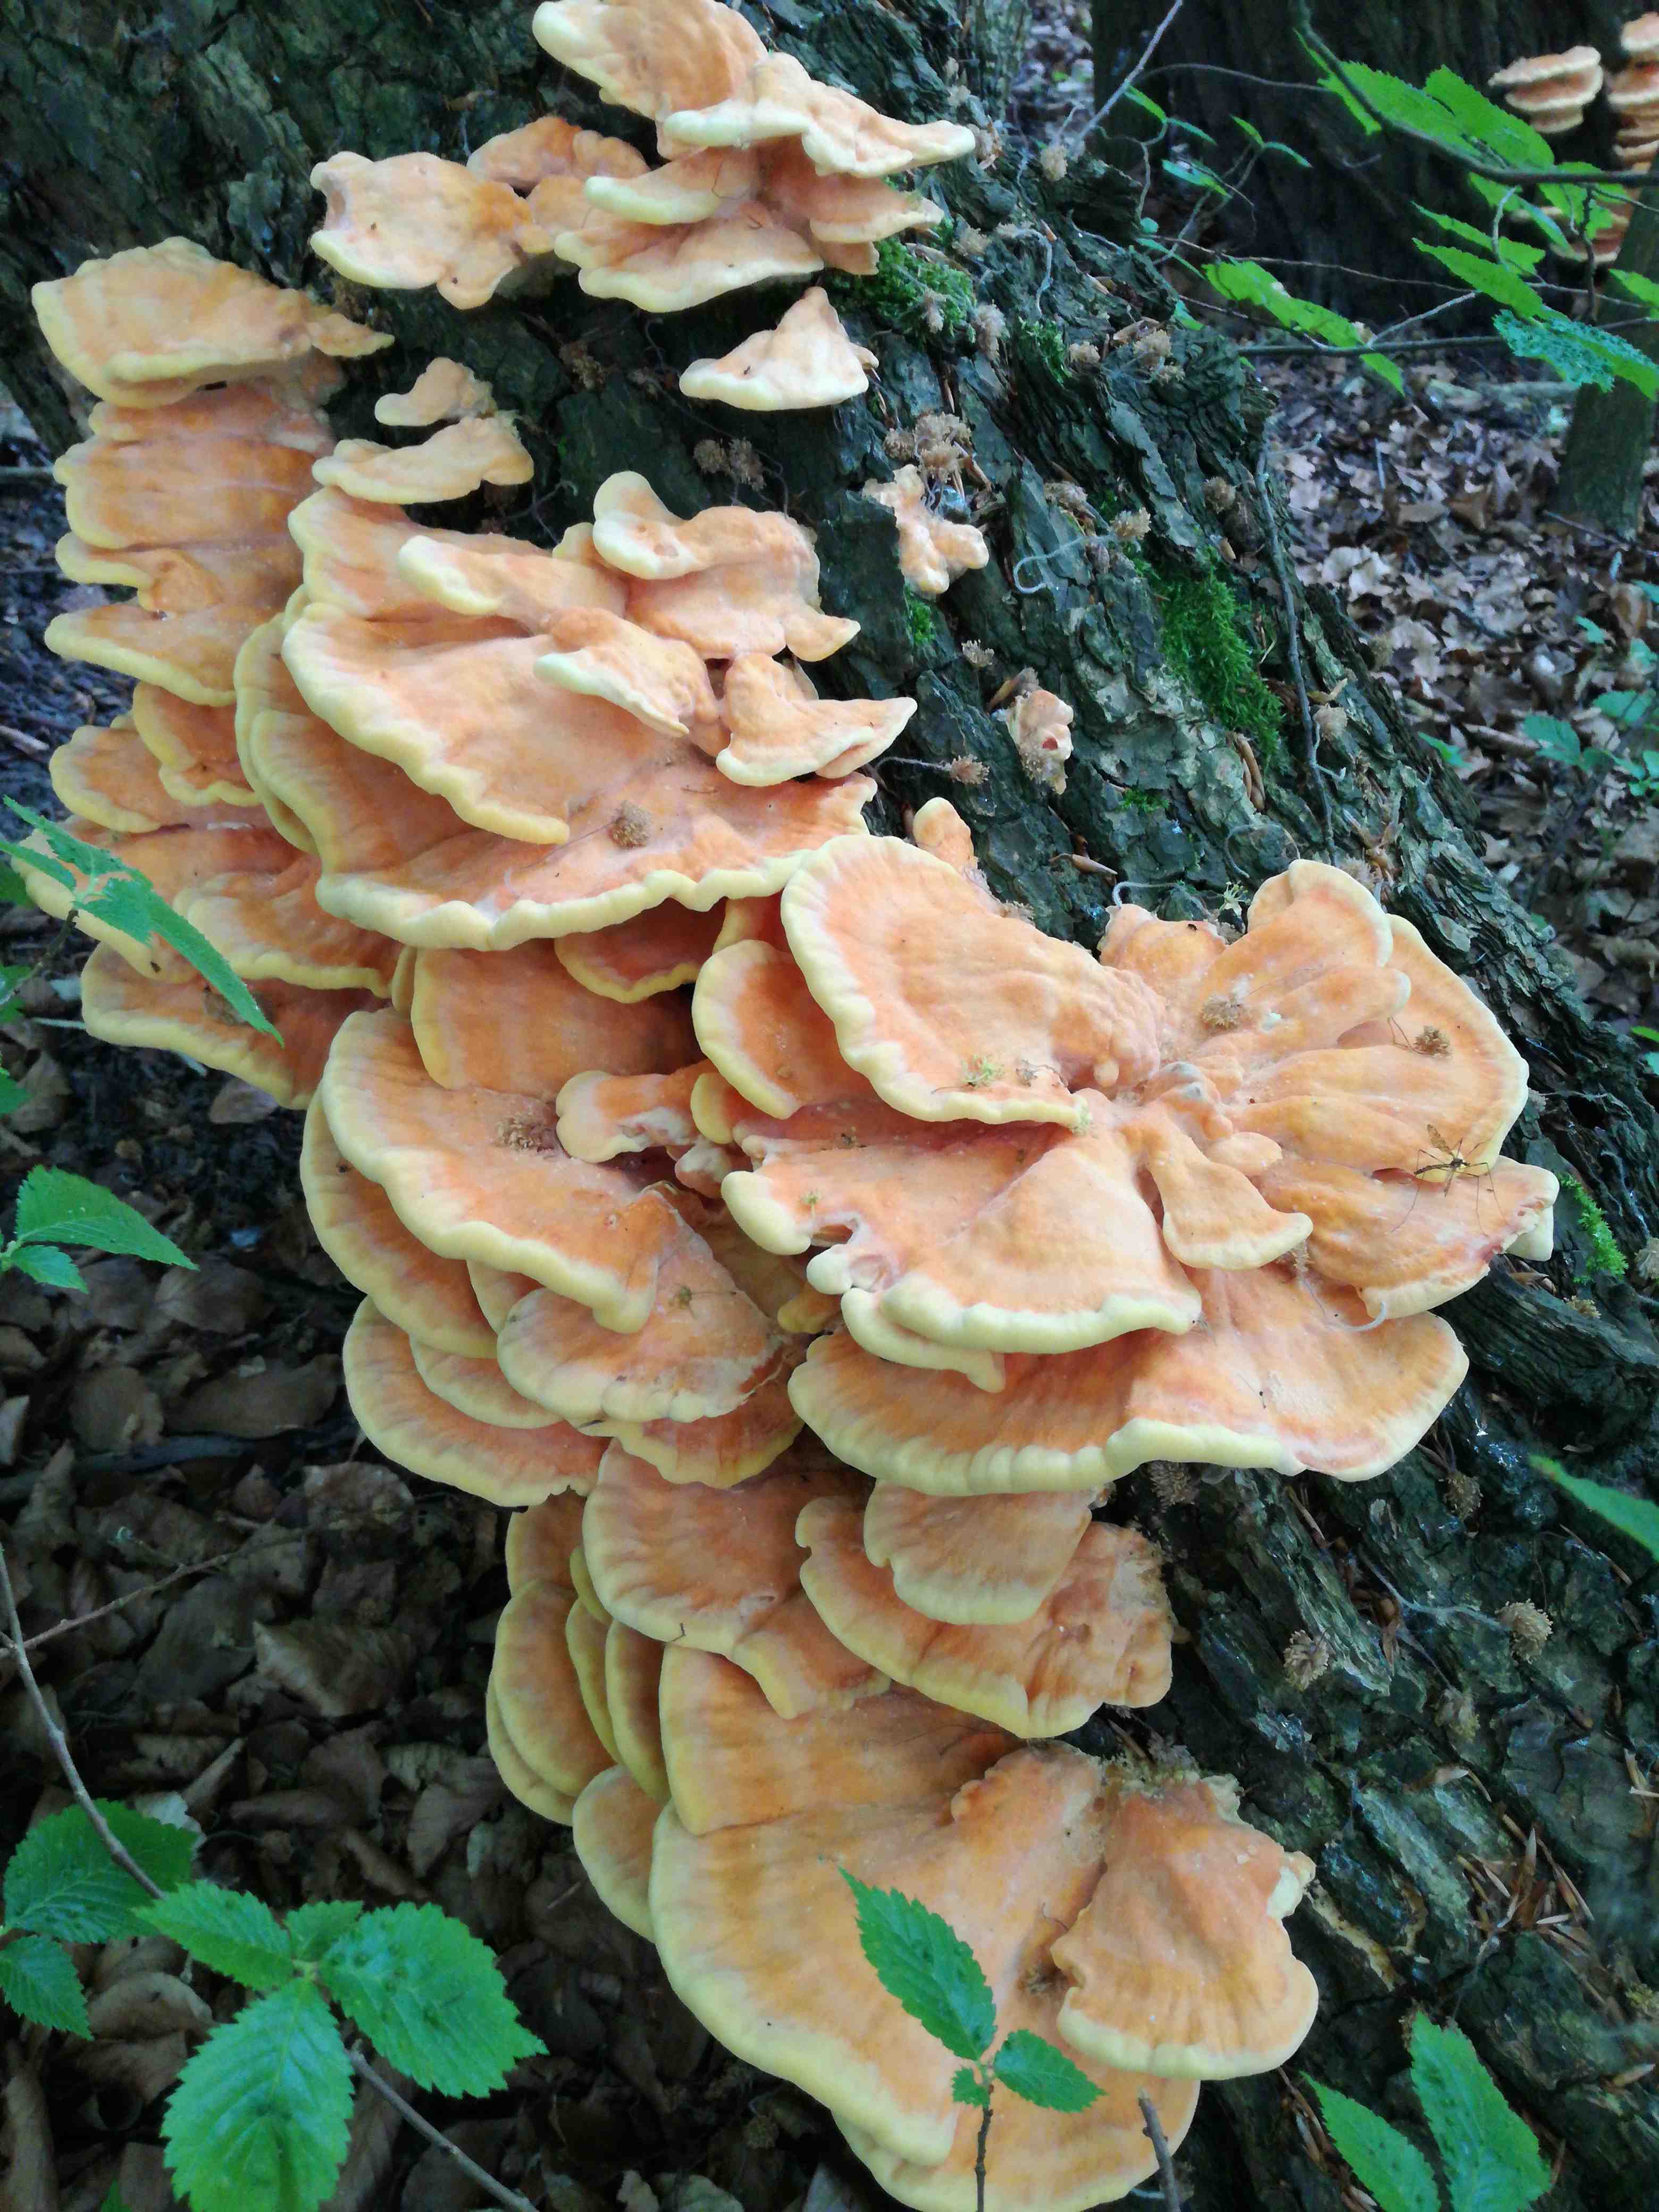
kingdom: Fungi
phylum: Basidiomycota
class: Agaricomycetes
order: Polyporales
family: Laetiporaceae
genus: Laetiporus
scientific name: Laetiporus sulphureus
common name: svovlporesvamp
